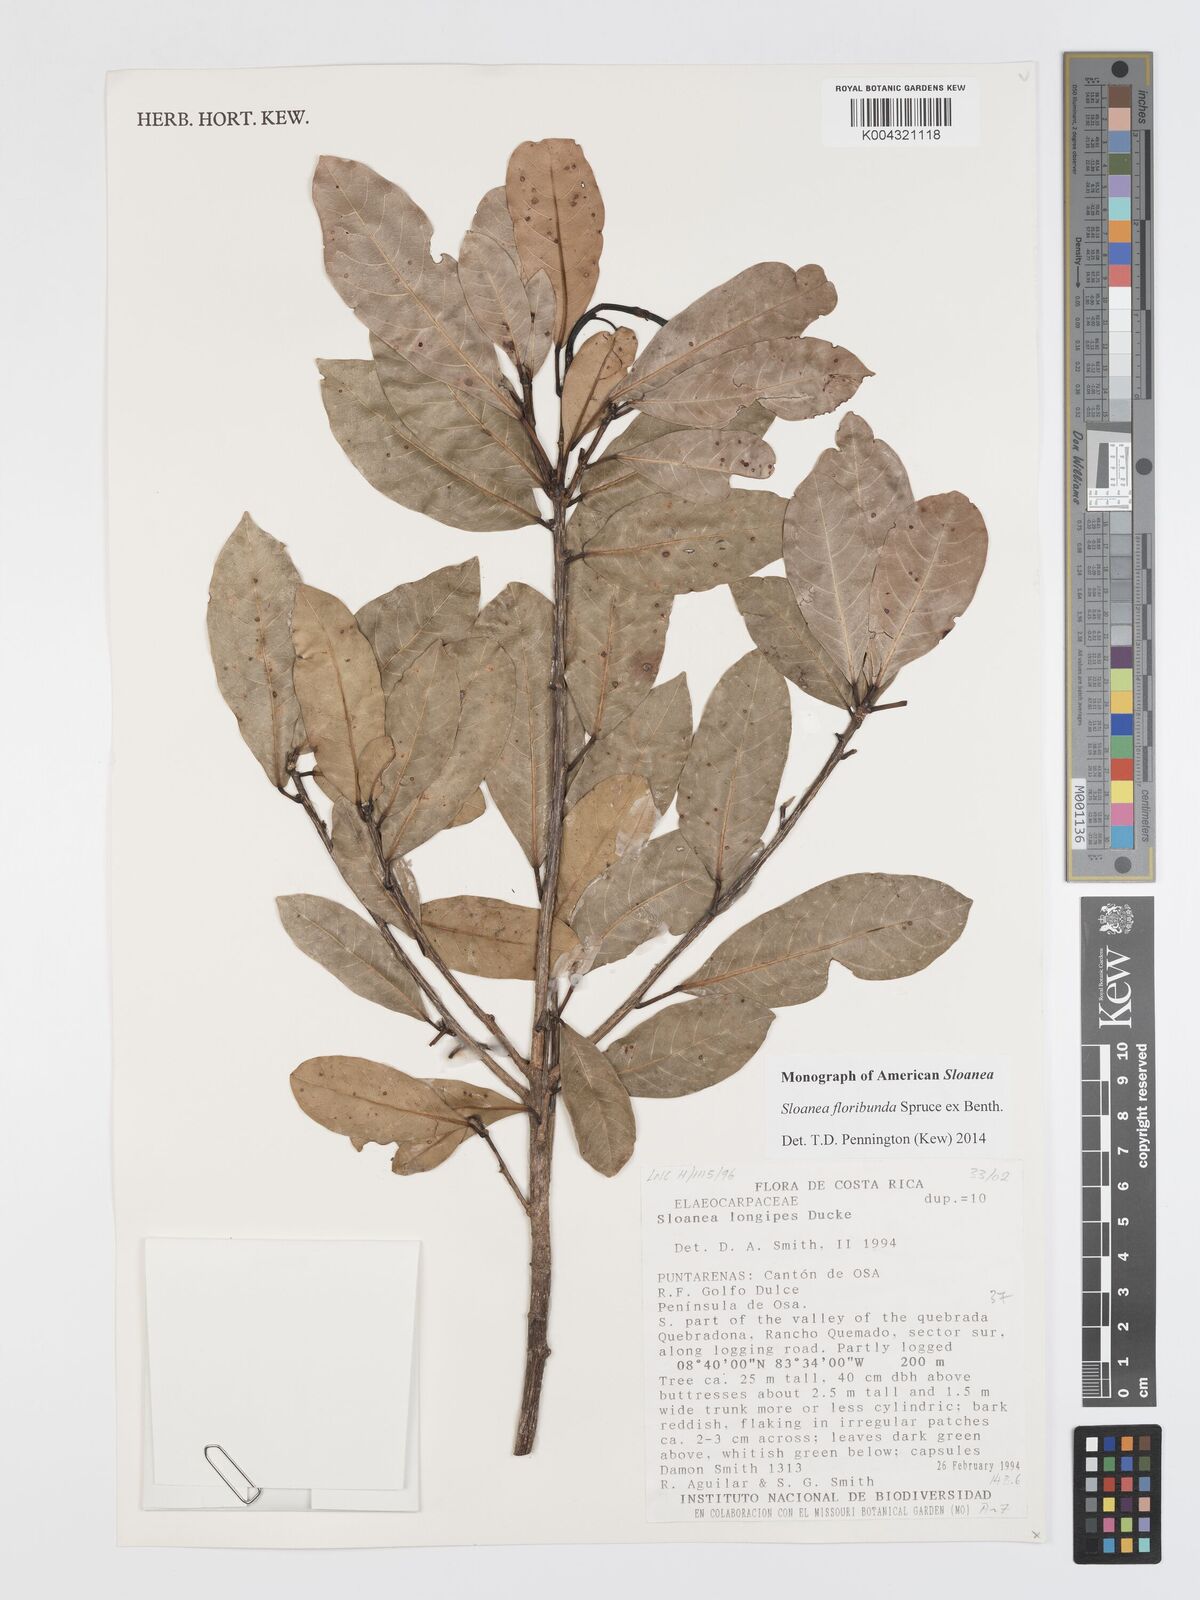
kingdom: Plantae
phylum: Tracheophyta
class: Magnoliopsida
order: Oxalidales
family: Elaeocarpaceae
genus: Sloanea
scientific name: Sloanea floribunda
